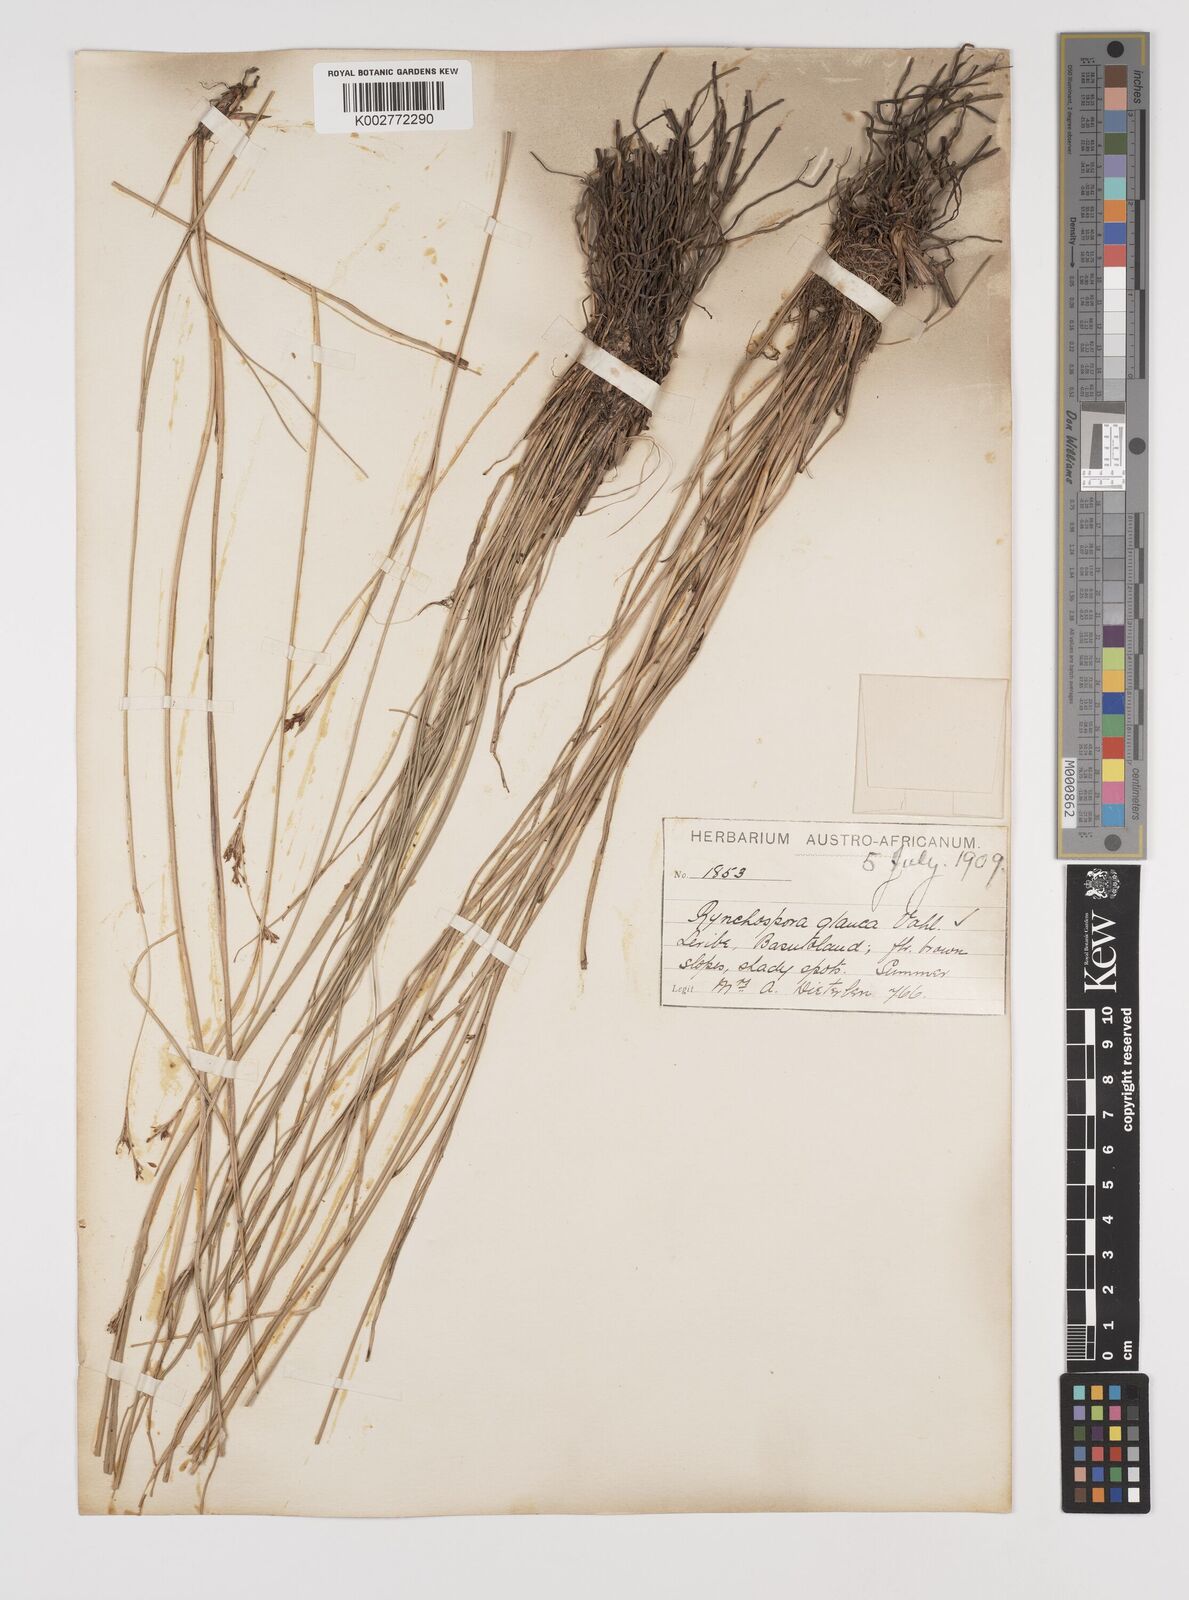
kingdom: Plantae
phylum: Tracheophyta
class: Liliopsida
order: Poales
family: Cyperaceae
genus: Rhynchospora
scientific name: Rhynchospora rugosa
